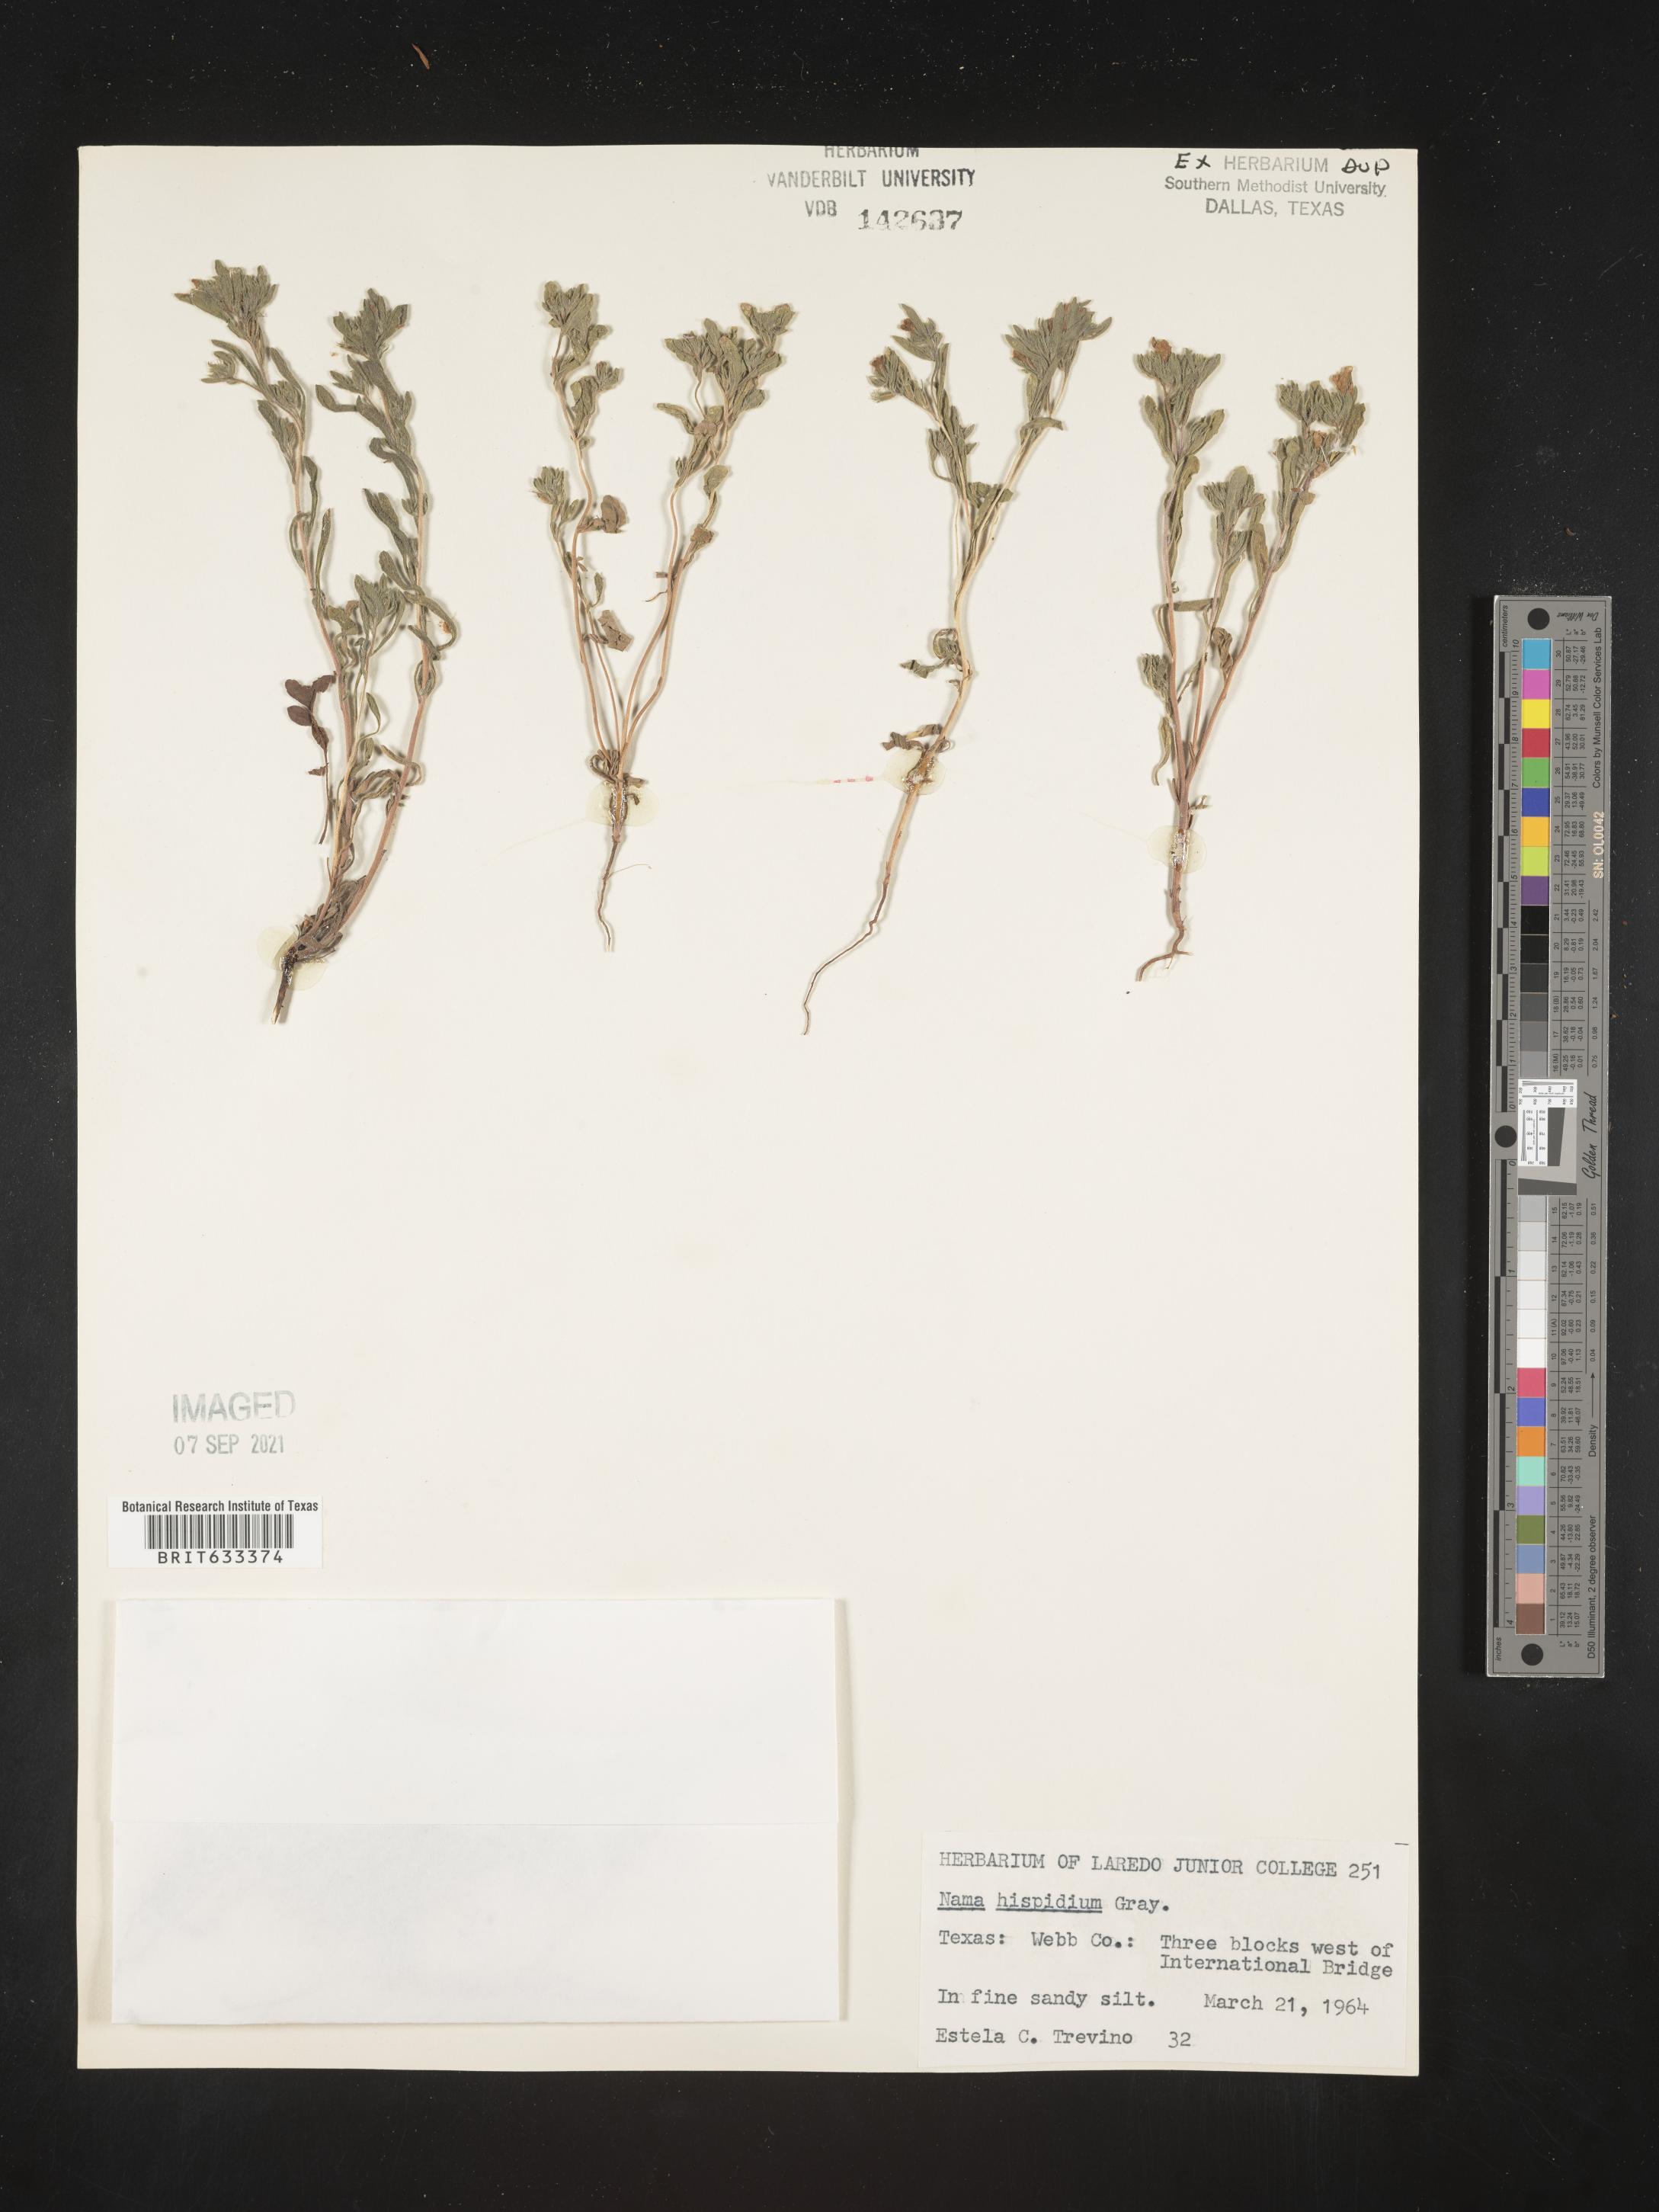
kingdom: Plantae
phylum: Tracheophyta
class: Magnoliopsida
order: Boraginales
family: Namaceae
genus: Nama
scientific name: Nama hispida
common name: Bristly nama
